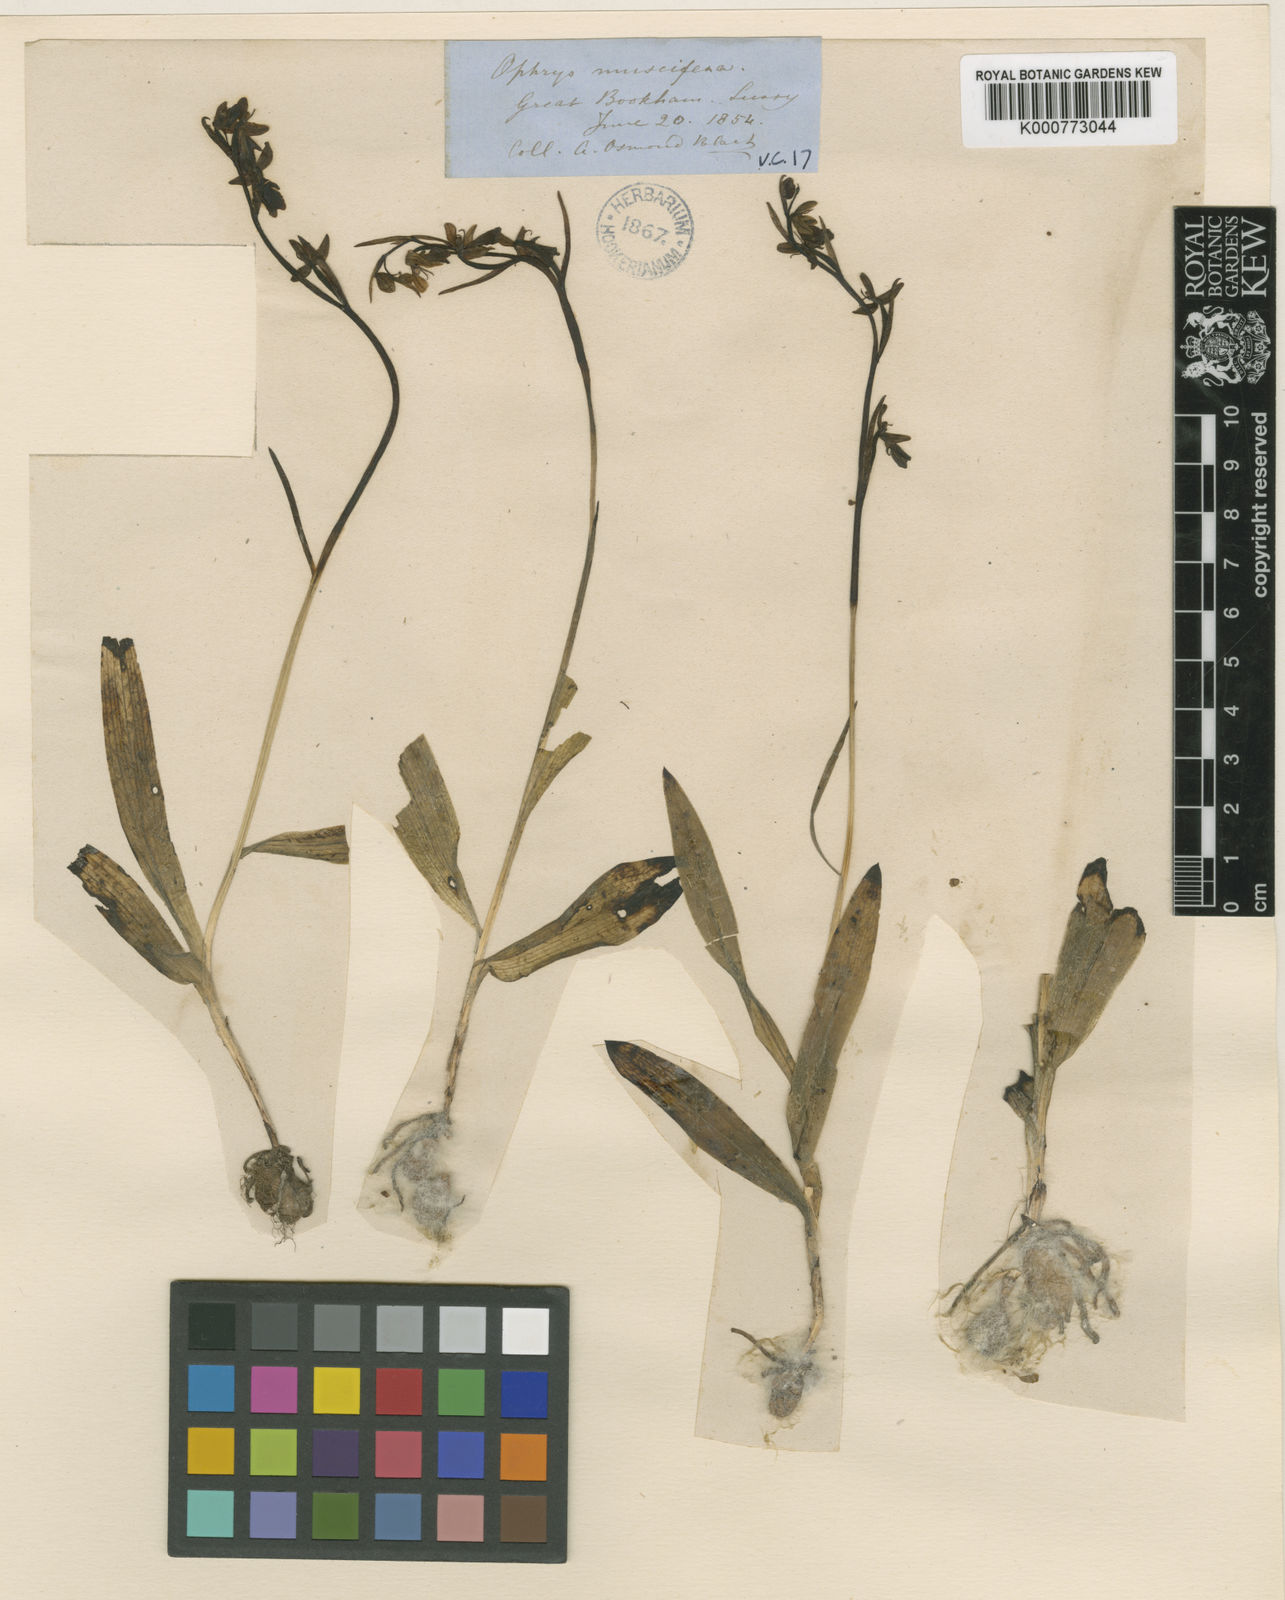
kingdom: Plantae
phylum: Tracheophyta
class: Liliopsida
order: Asparagales
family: Orchidaceae
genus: Ophrys
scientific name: Ophrys insectifera
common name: Fly orchid
